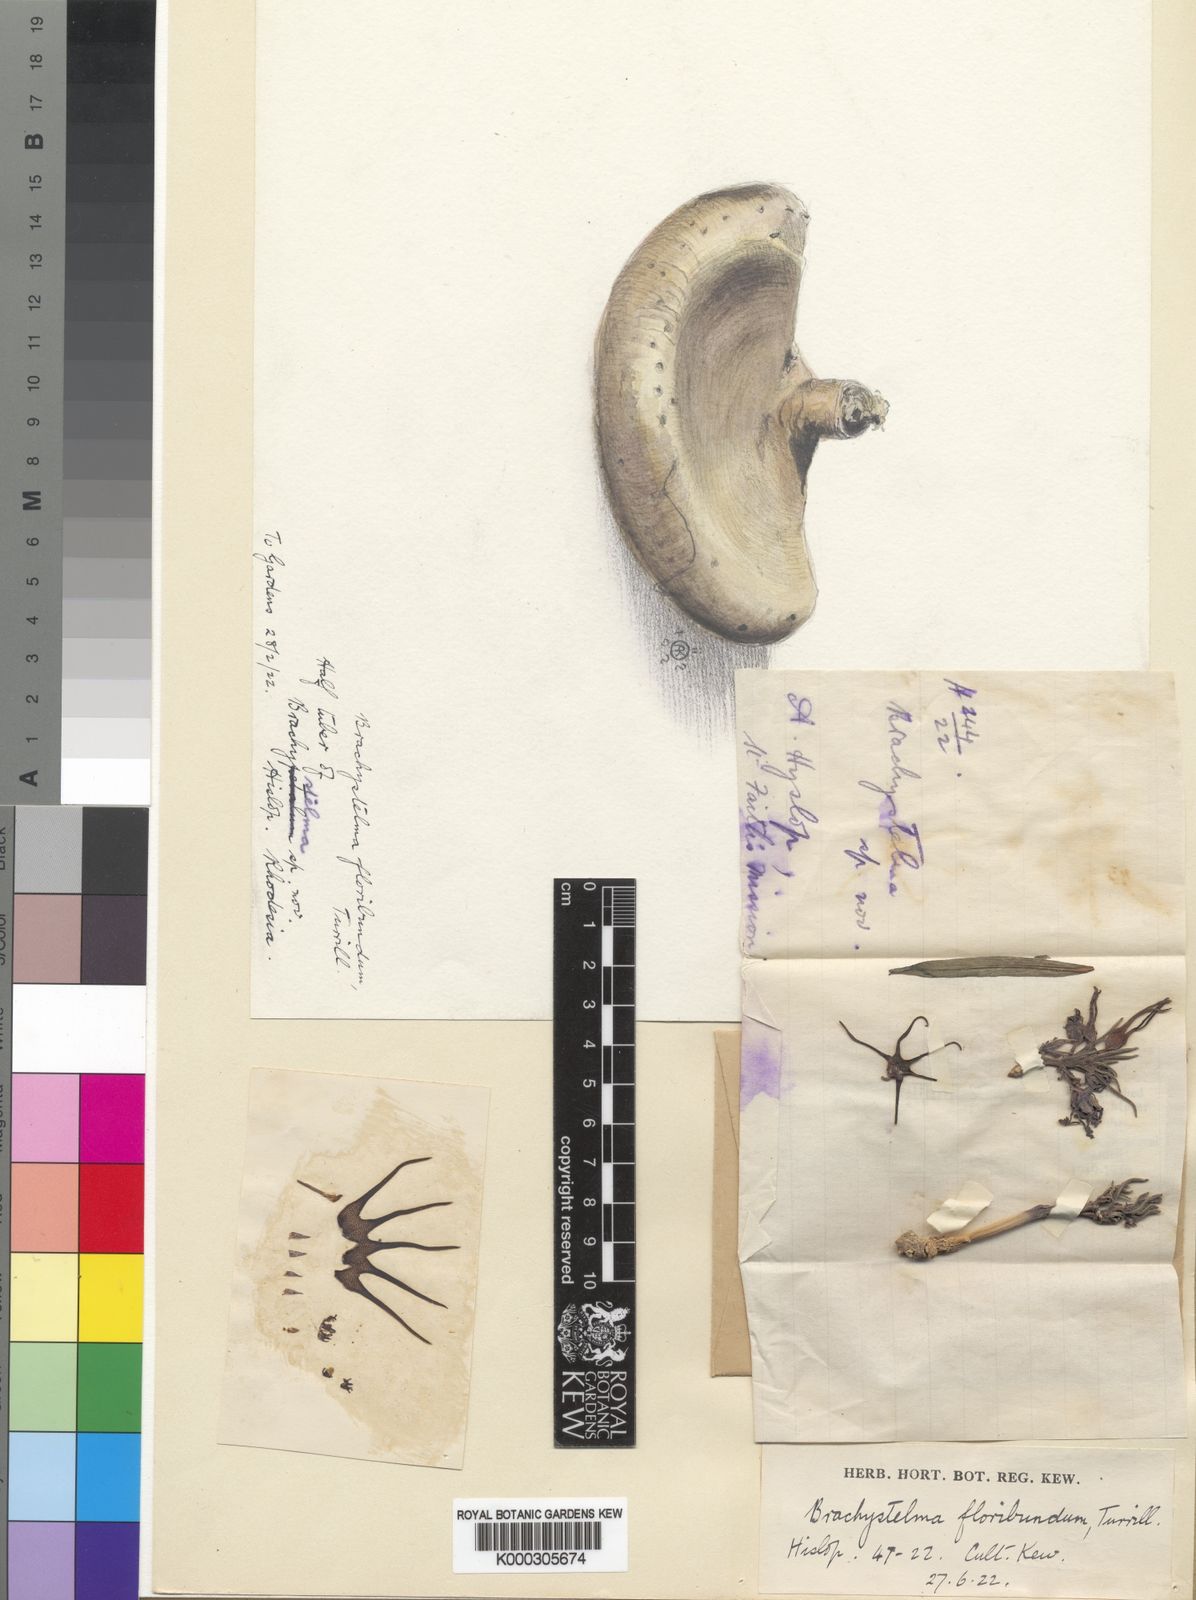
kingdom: Plantae
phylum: Tracheophyta
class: Magnoliopsida
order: Gentianales
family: Apocynaceae
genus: Ceropegia
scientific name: Ceropegia floribundior
